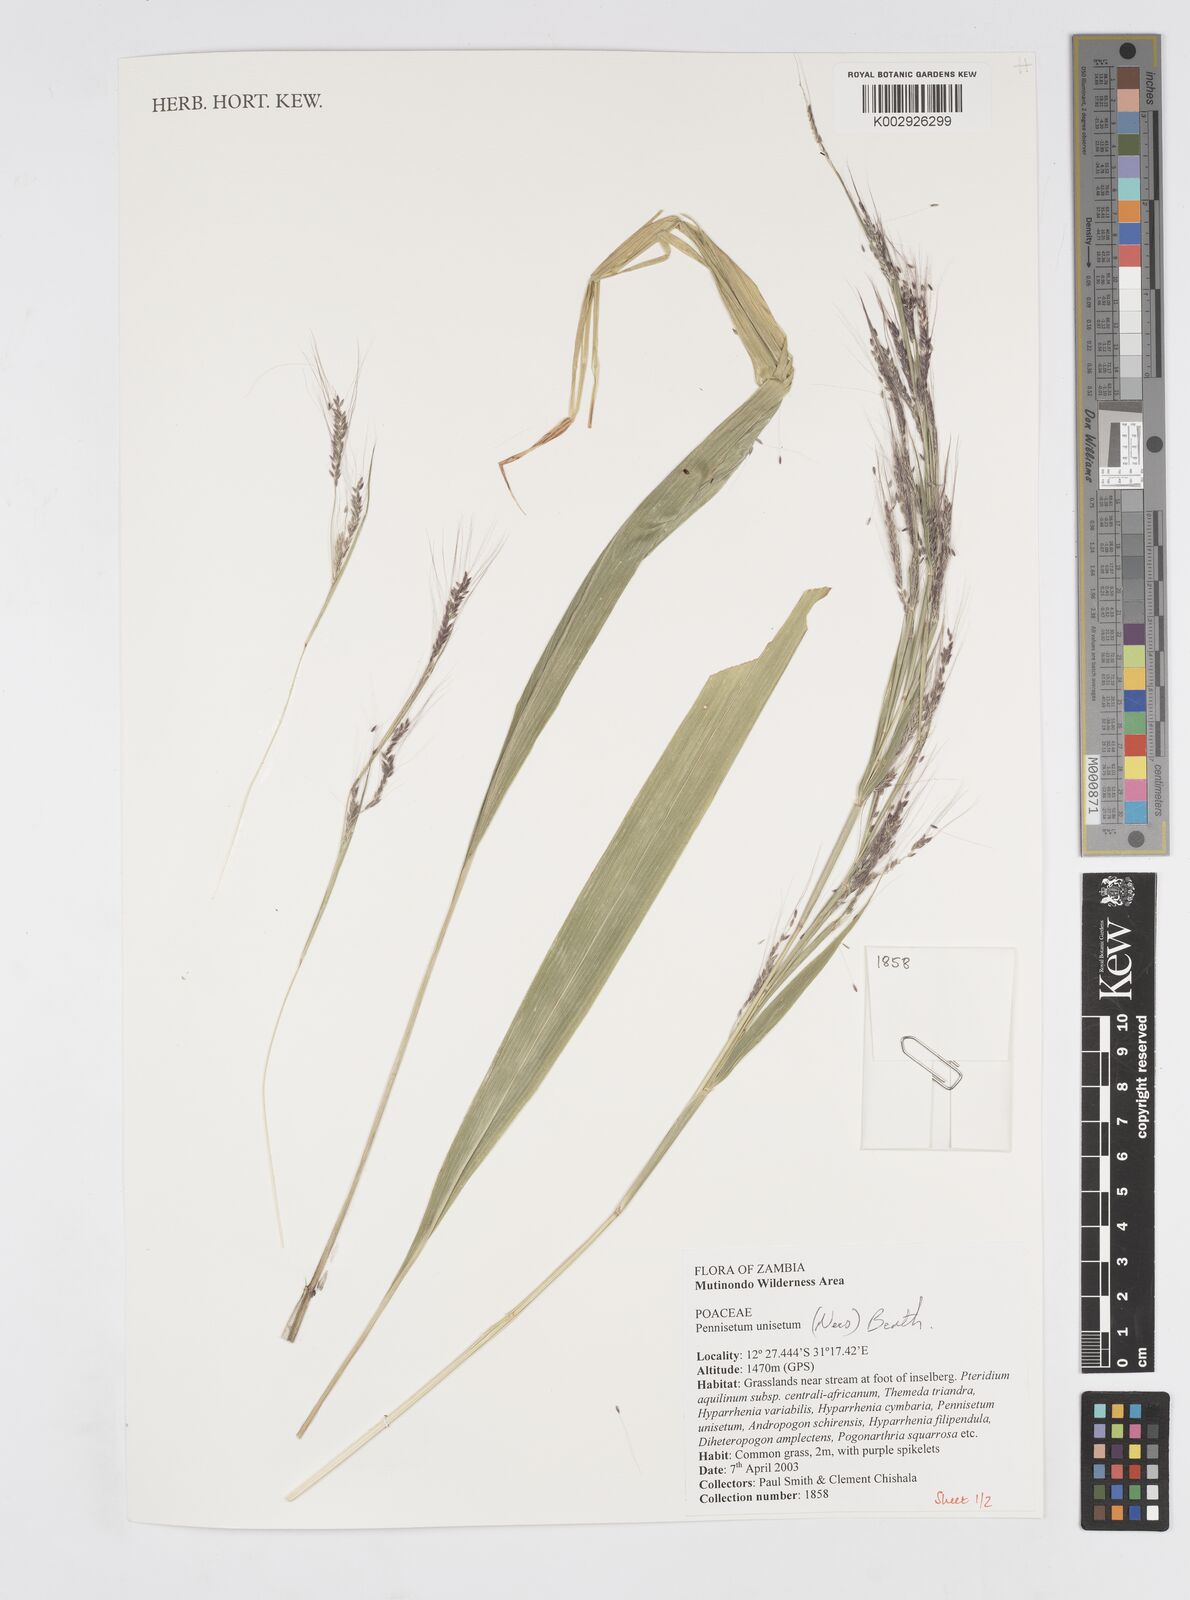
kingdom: Plantae
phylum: Tracheophyta
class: Liliopsida
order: Poales
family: Poaceae
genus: Cenchrus
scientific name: Cenchrus unisetus
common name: Natal grass
